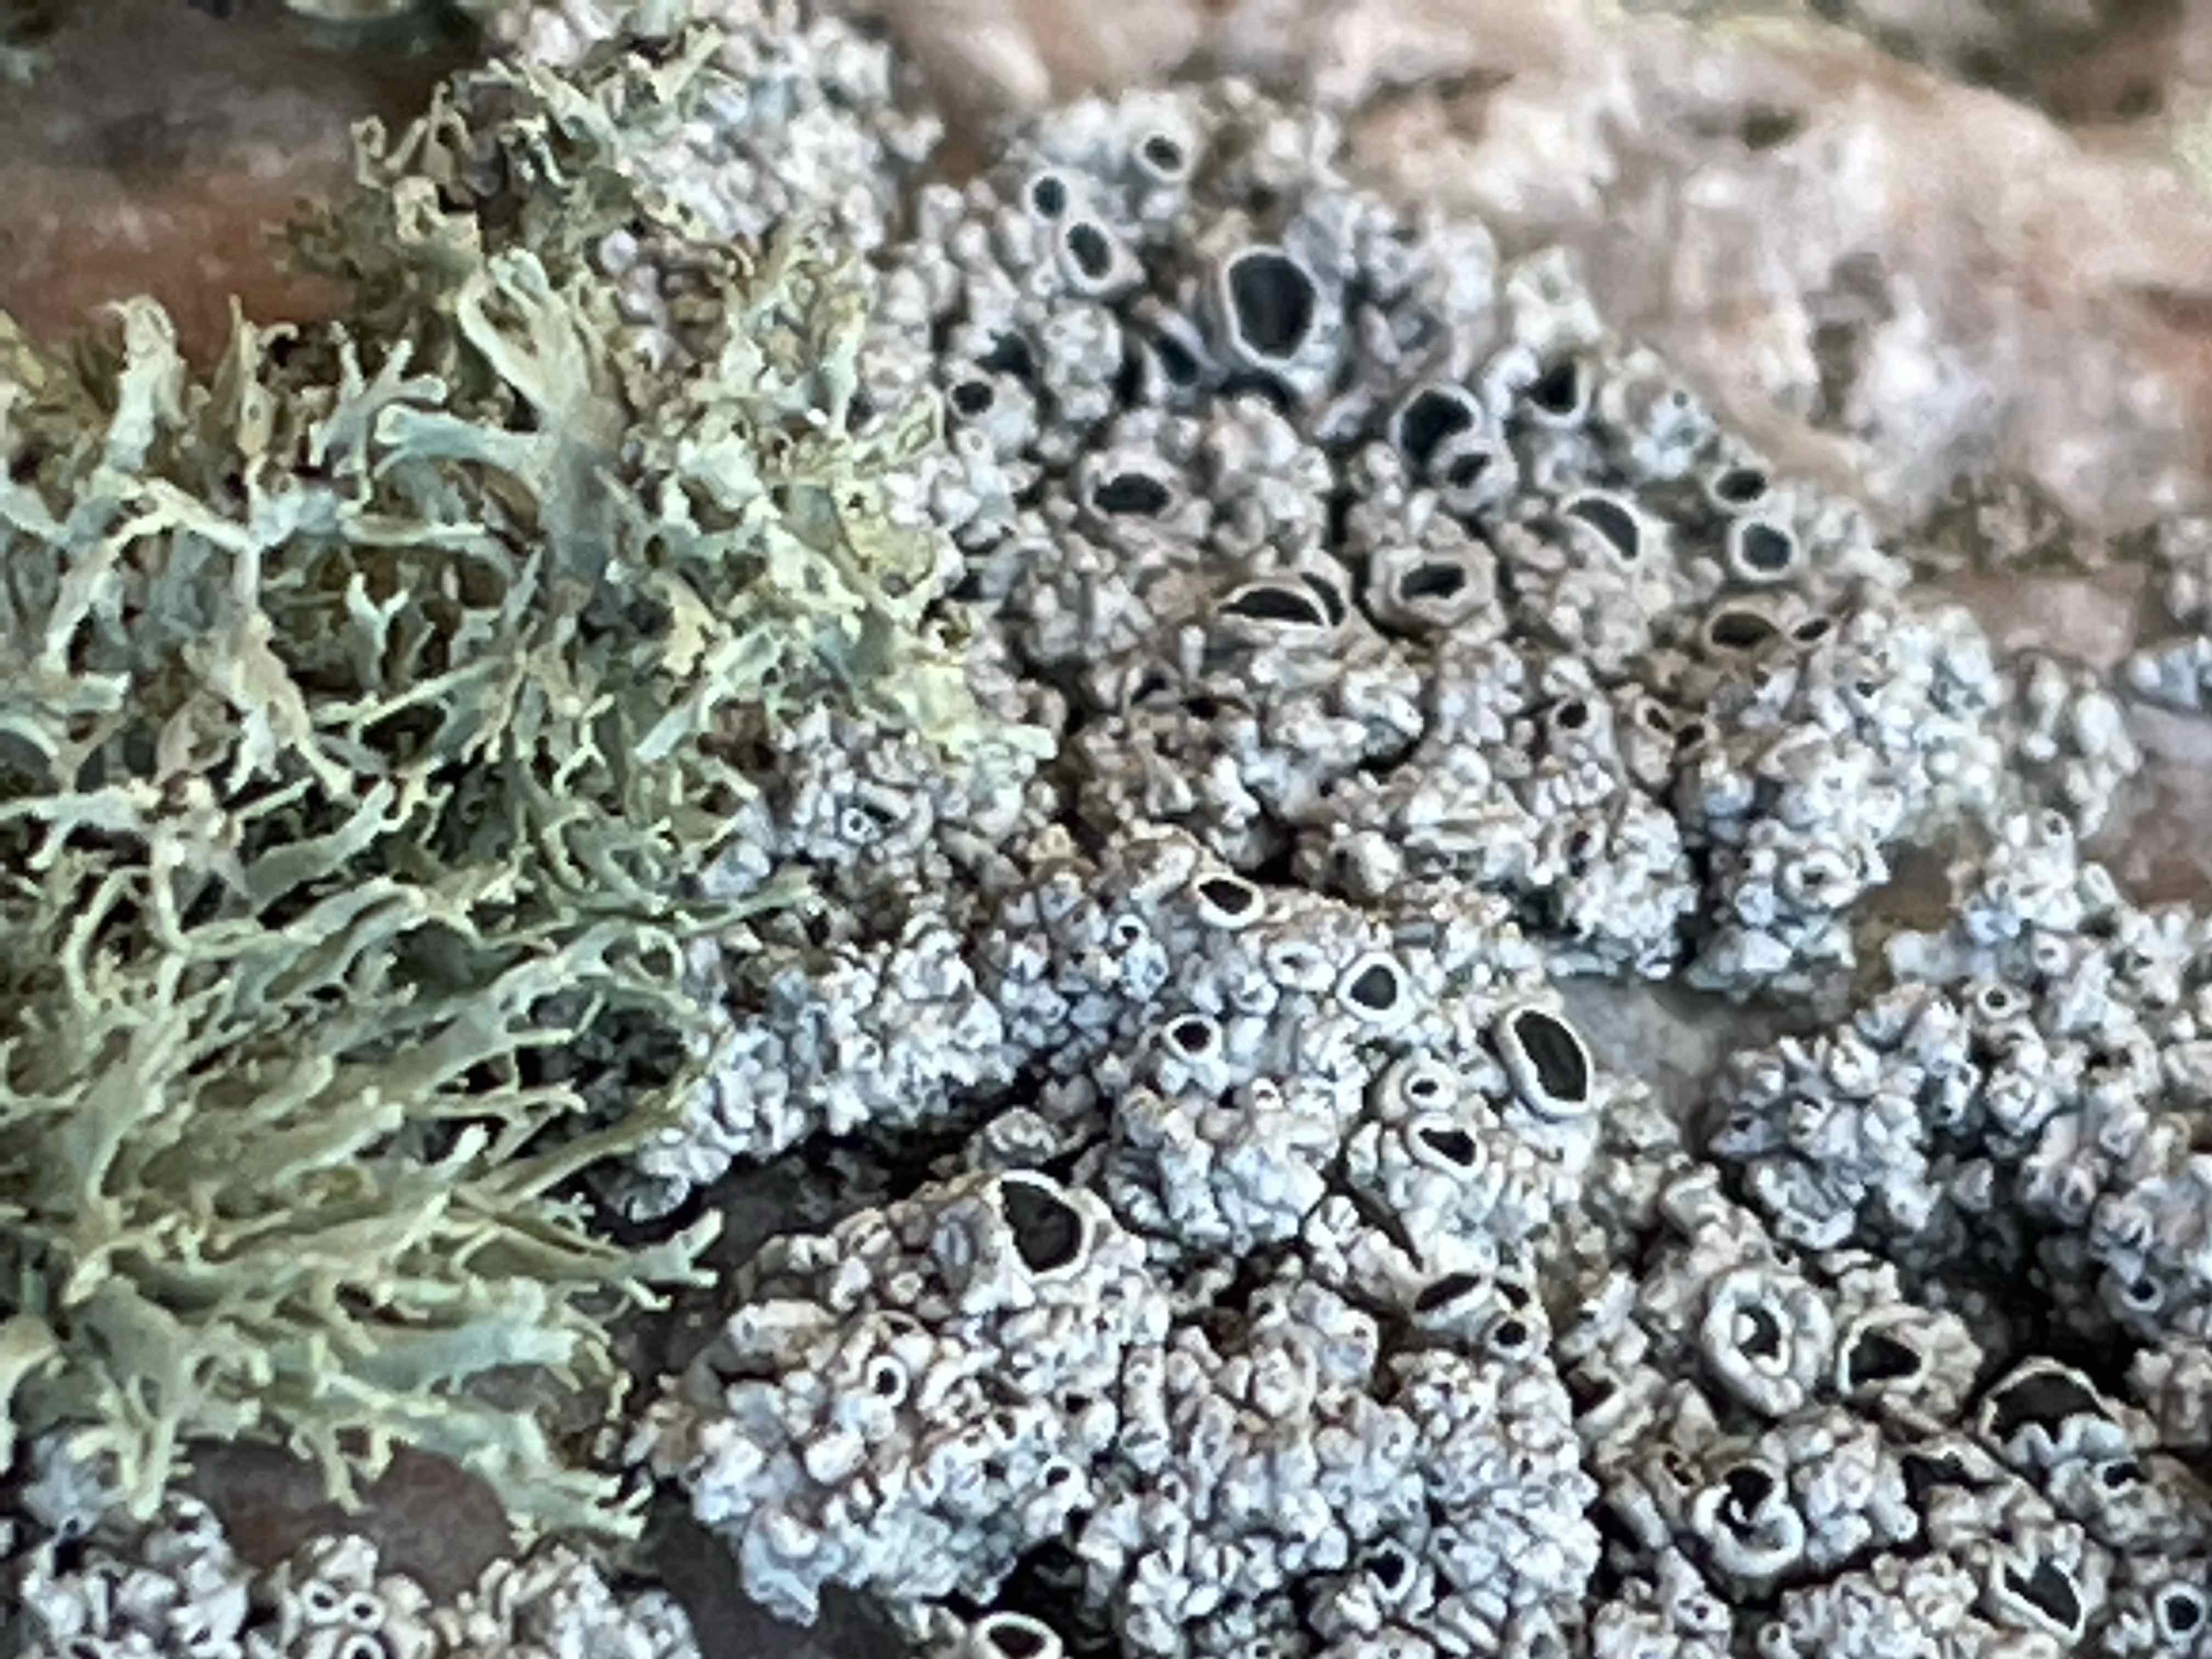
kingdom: Fungi
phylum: Ascomycota
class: Lecanoromycetes
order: Lecanorales
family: Tephromelataceae
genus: Tephromela
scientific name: Tephromela atra
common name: sortfrugtet kantskivelav
